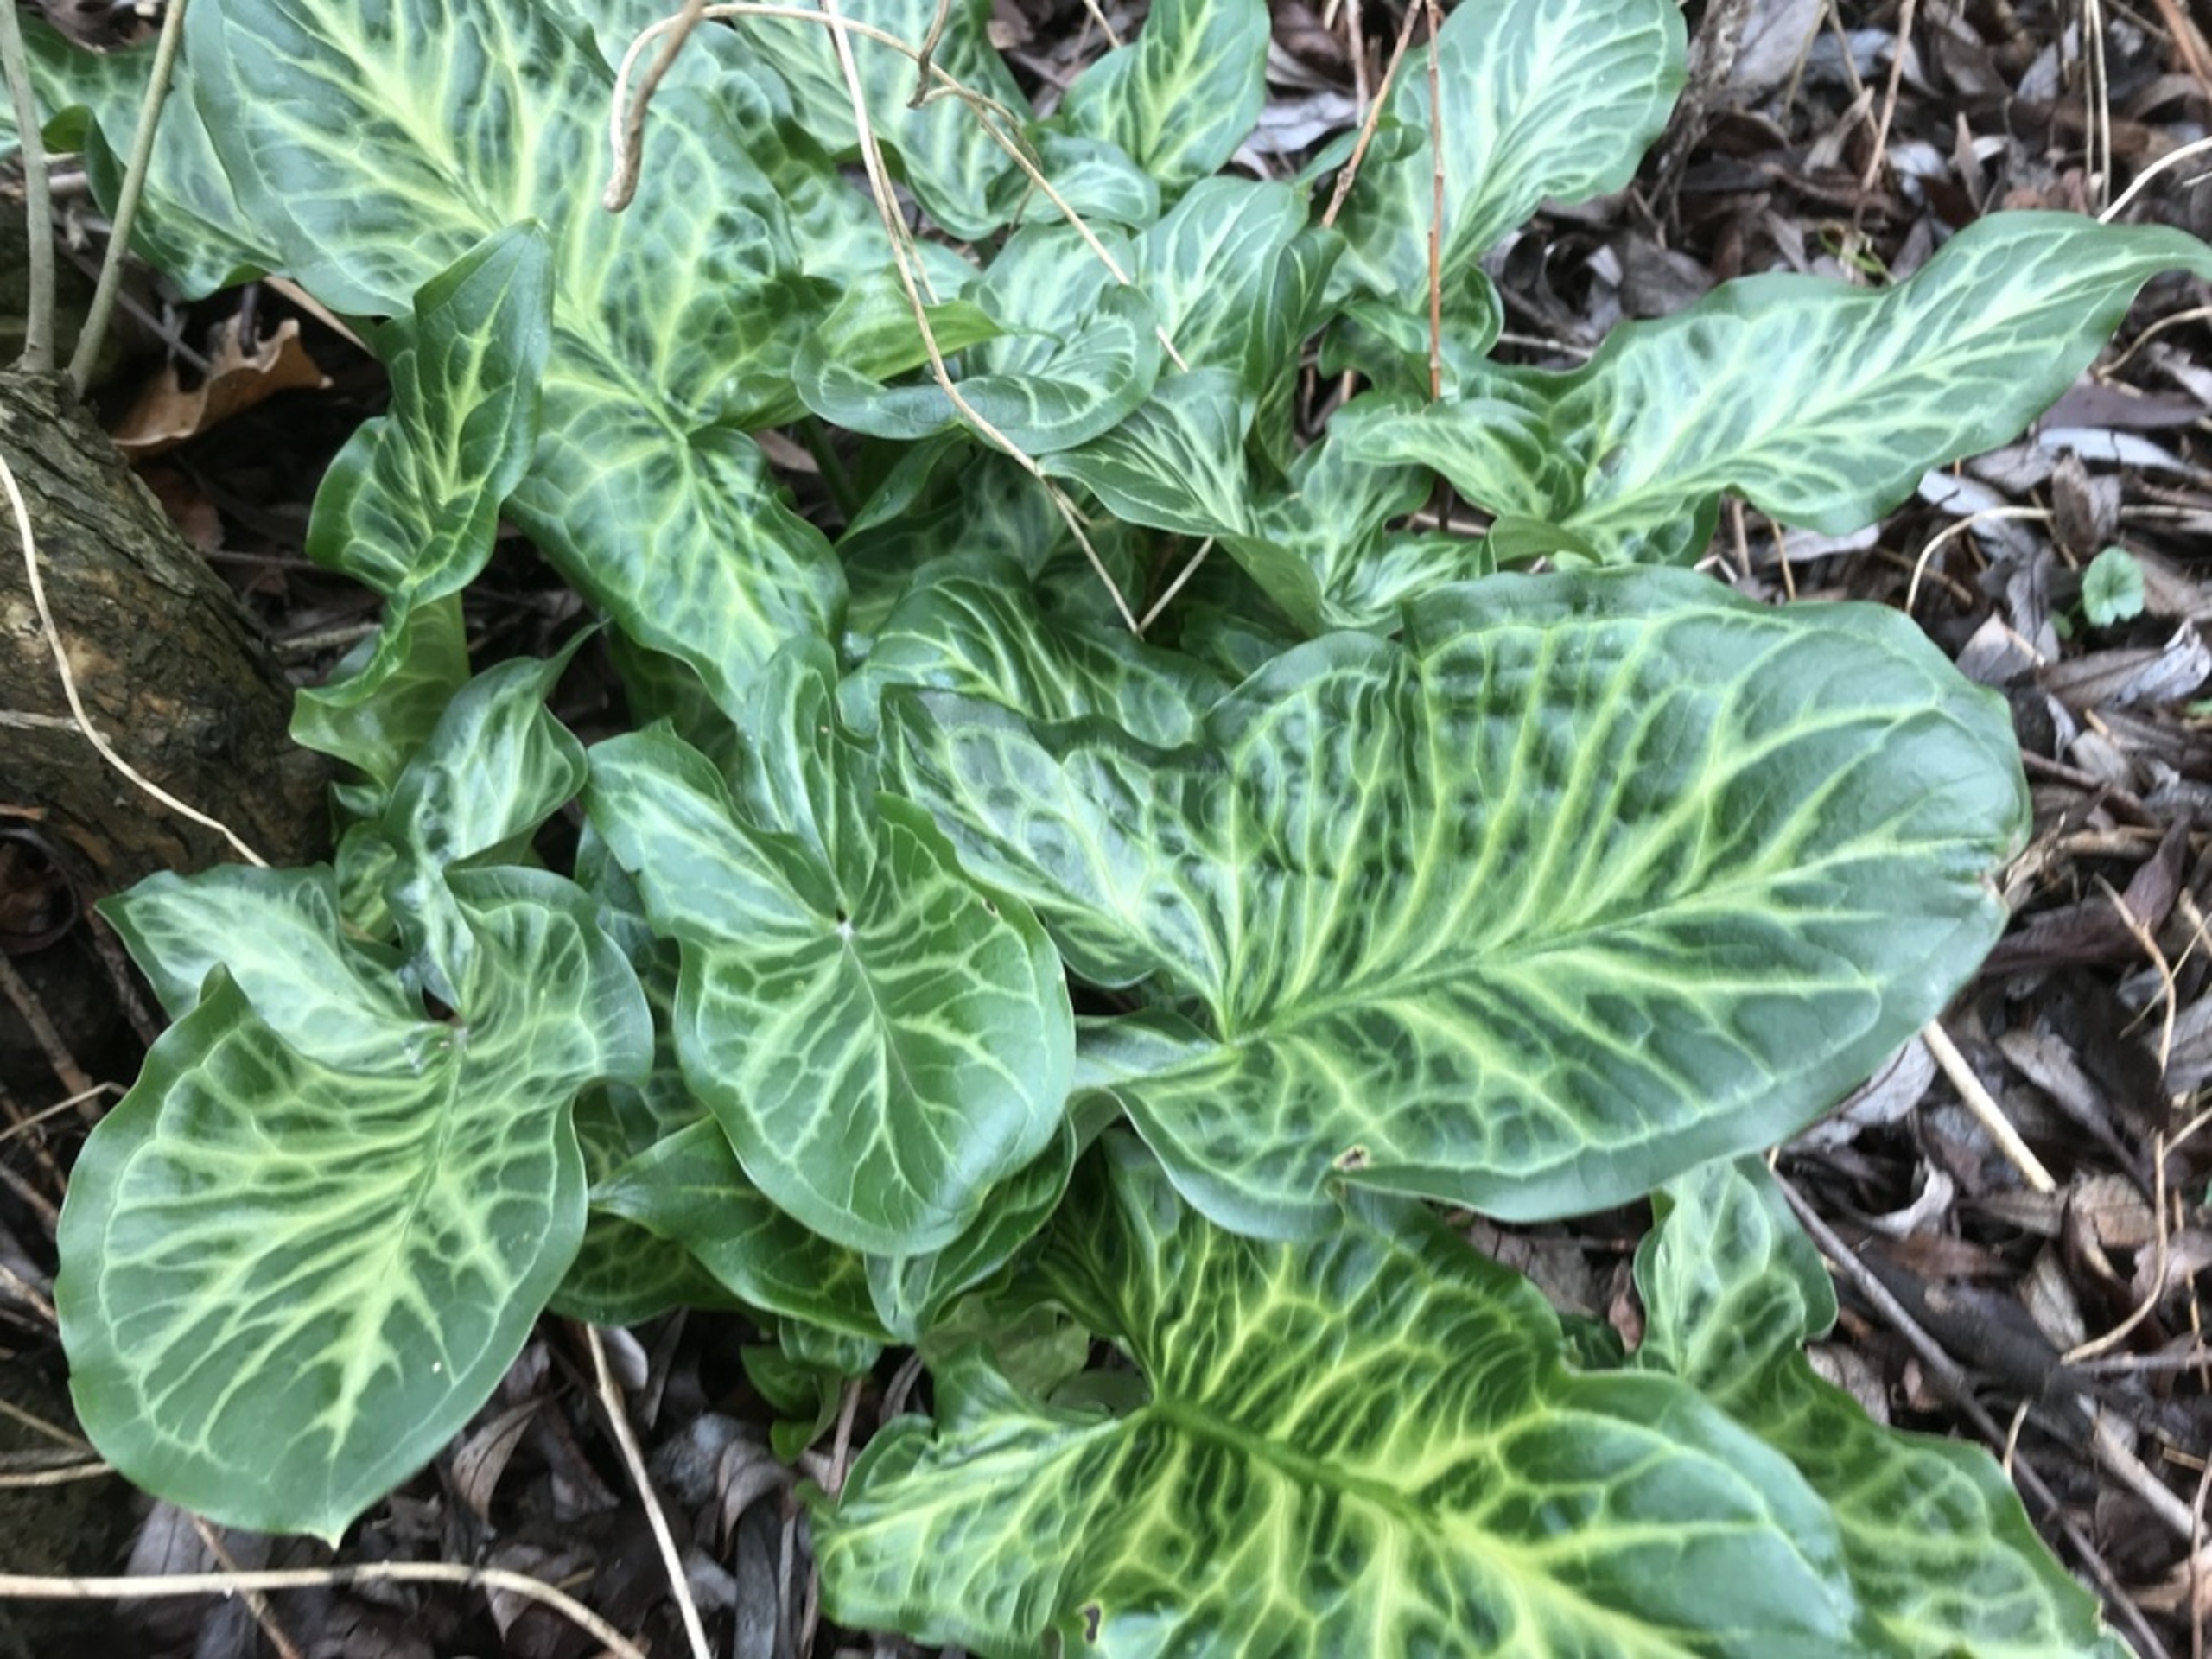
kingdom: Plantae
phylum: Tracheophyta
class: Liliopsida
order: Alismatales
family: Araceae
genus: Arum
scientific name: Arum italicum
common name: Italiensk arum
